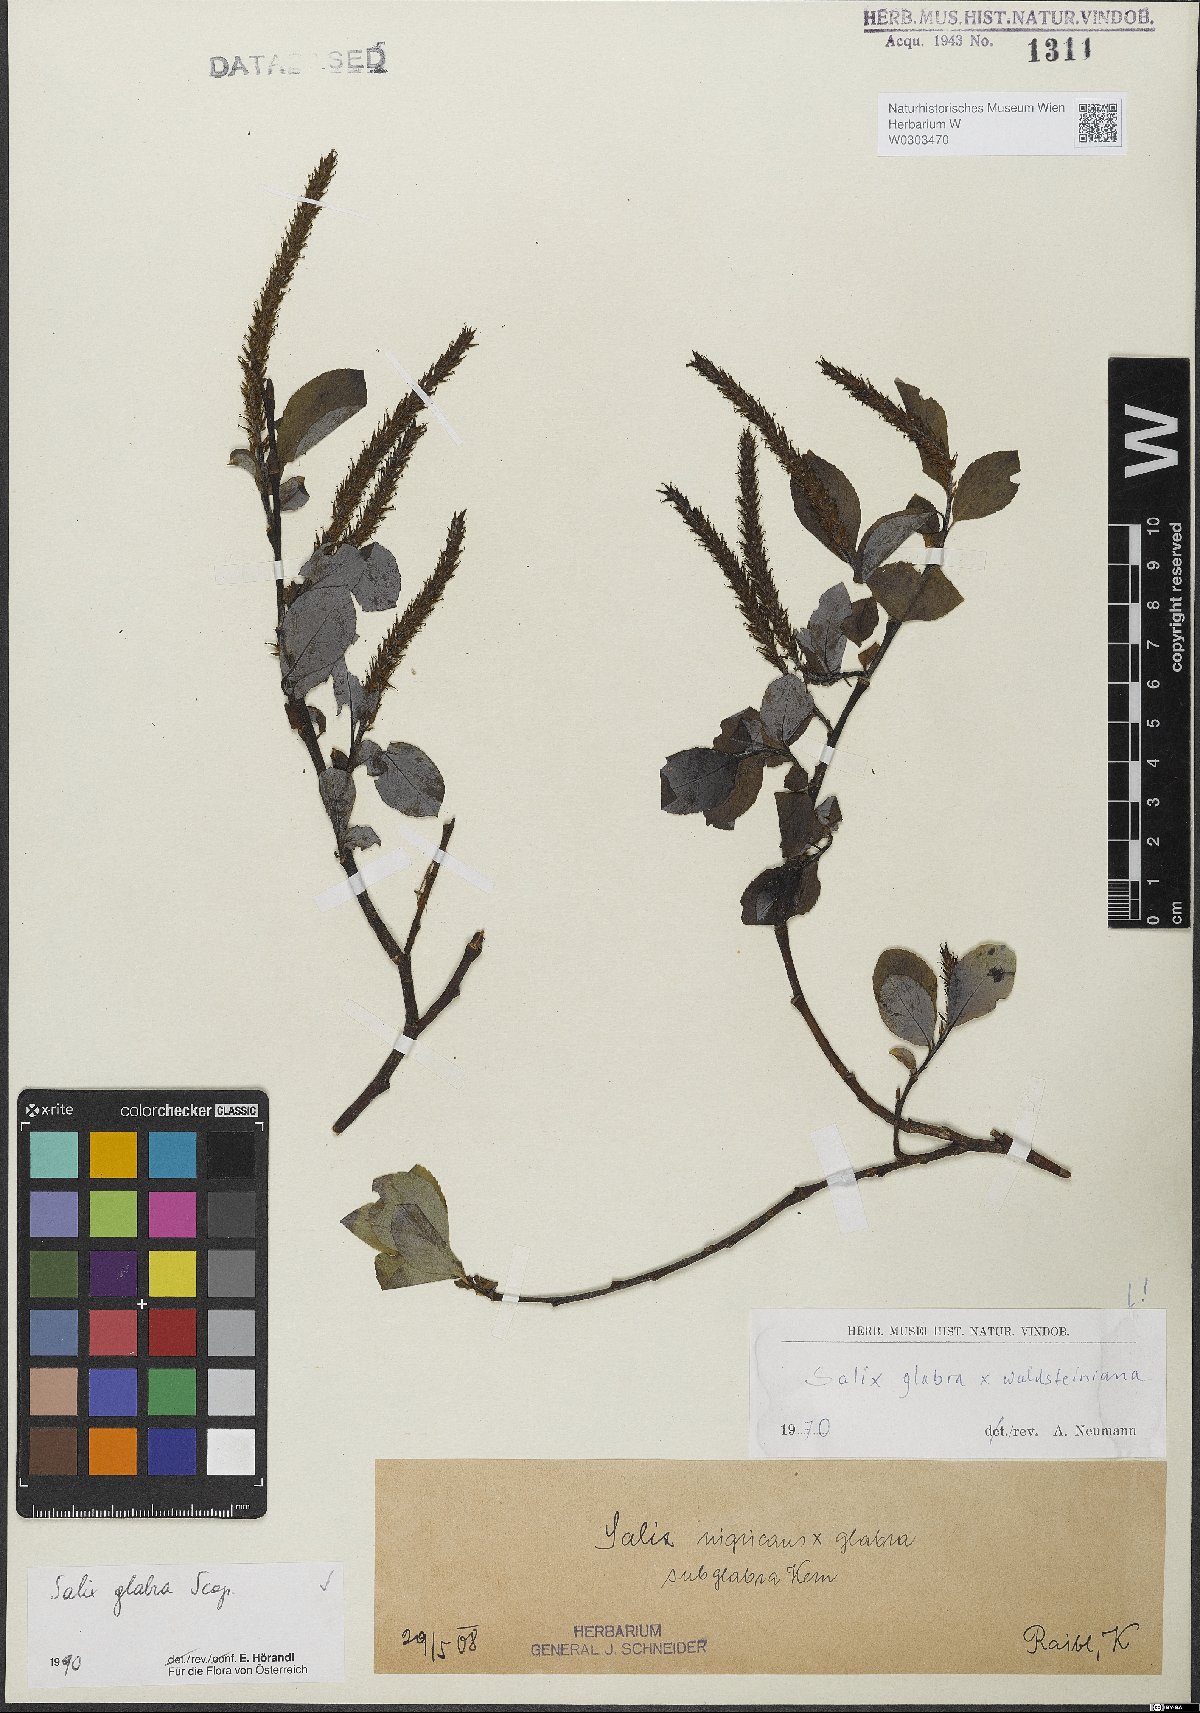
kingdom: Plantae
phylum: Tracheophyta
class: Magnoliopsida
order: Malpighiales
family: Salicaceae
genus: Salix
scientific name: Salix glabra
